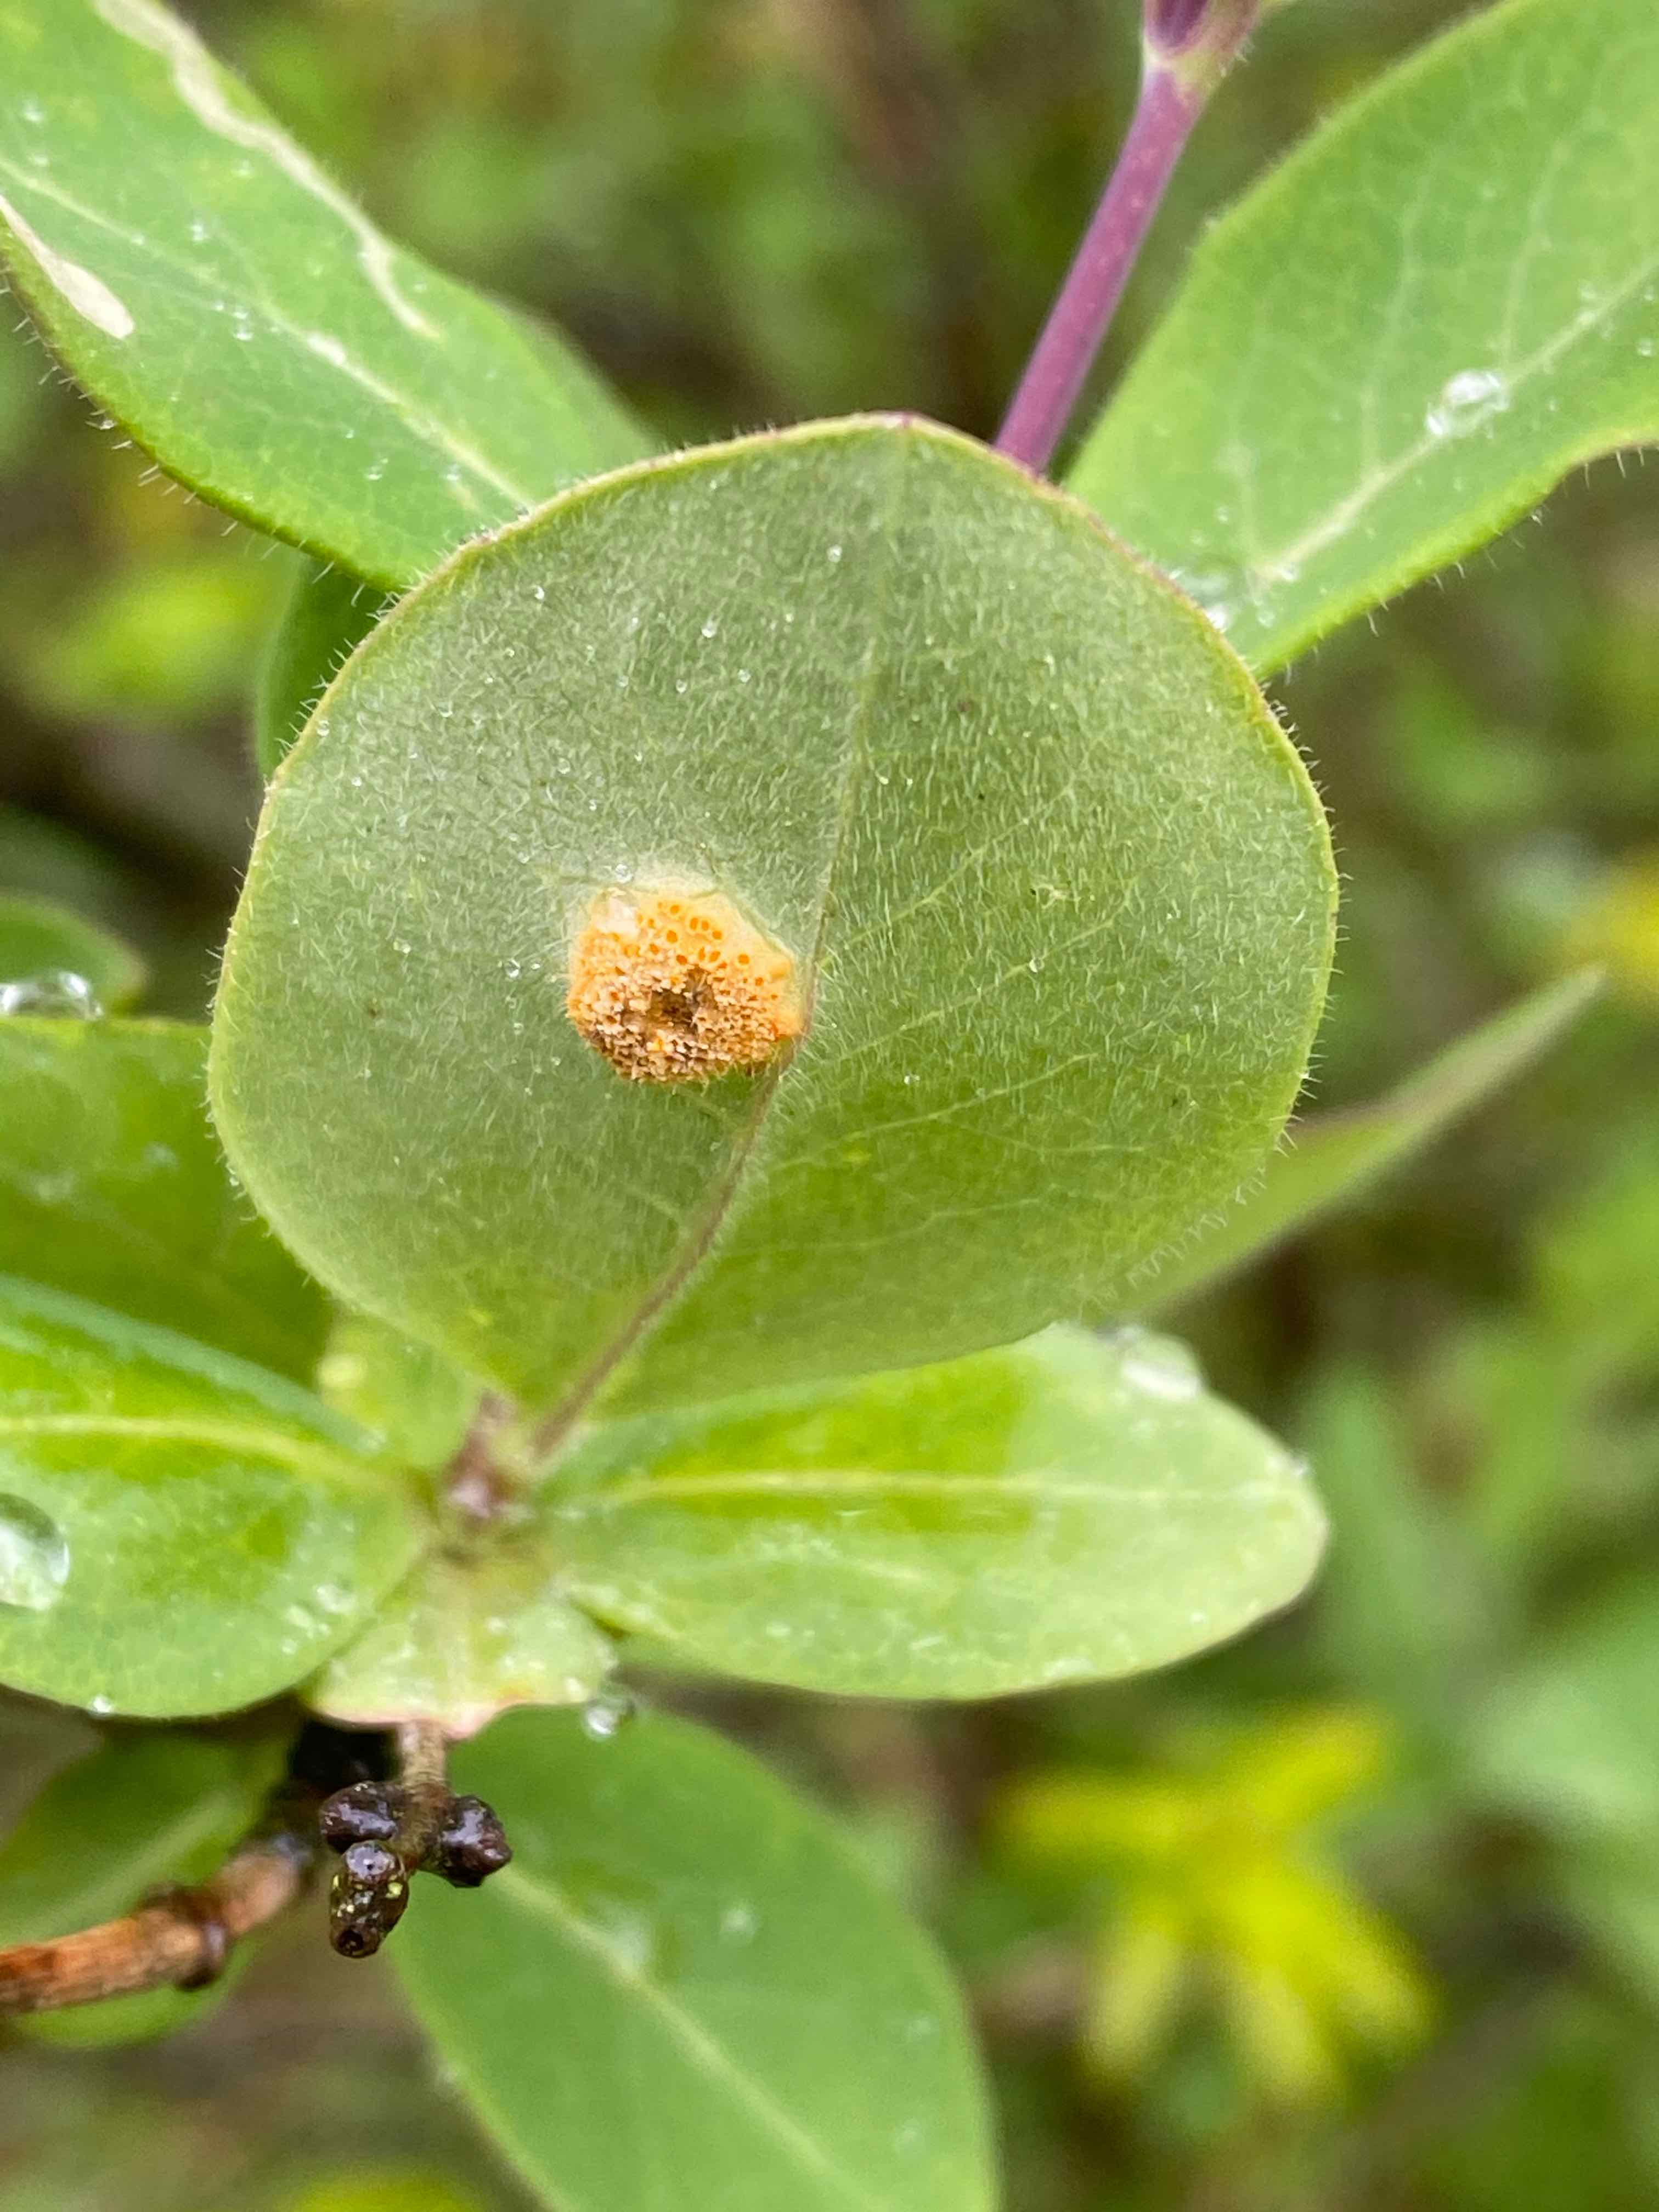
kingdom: Fungi
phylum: Basidiomycota
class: Pucciniomycetes
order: Pucciniales
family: Pucciniaceae
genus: Puccinia
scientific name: Puccinia festucae
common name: gedeblad-tvecellerust
